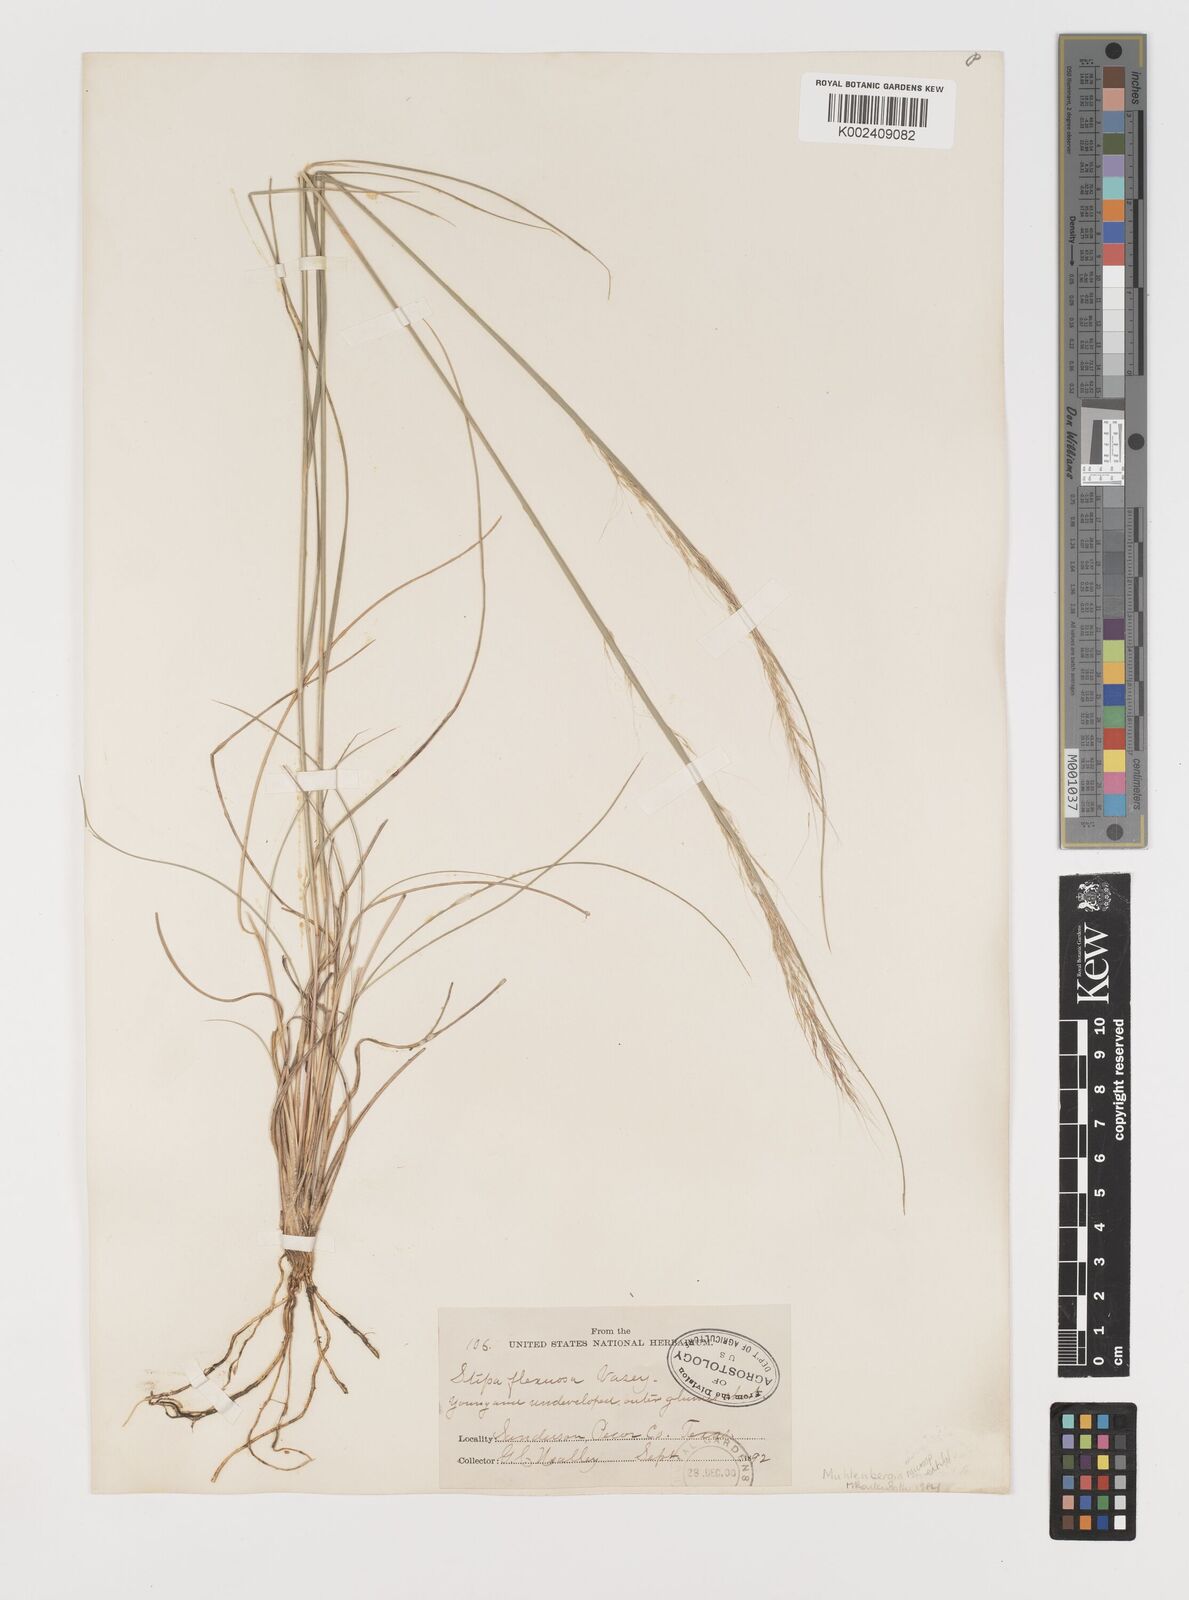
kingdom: Plantae
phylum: Tracheophyta
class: Liliopsida
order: Poales
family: Poaceae
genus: Muhlenbergia
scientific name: Muhlenbergia setifolia
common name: Curly-leaf muhly
